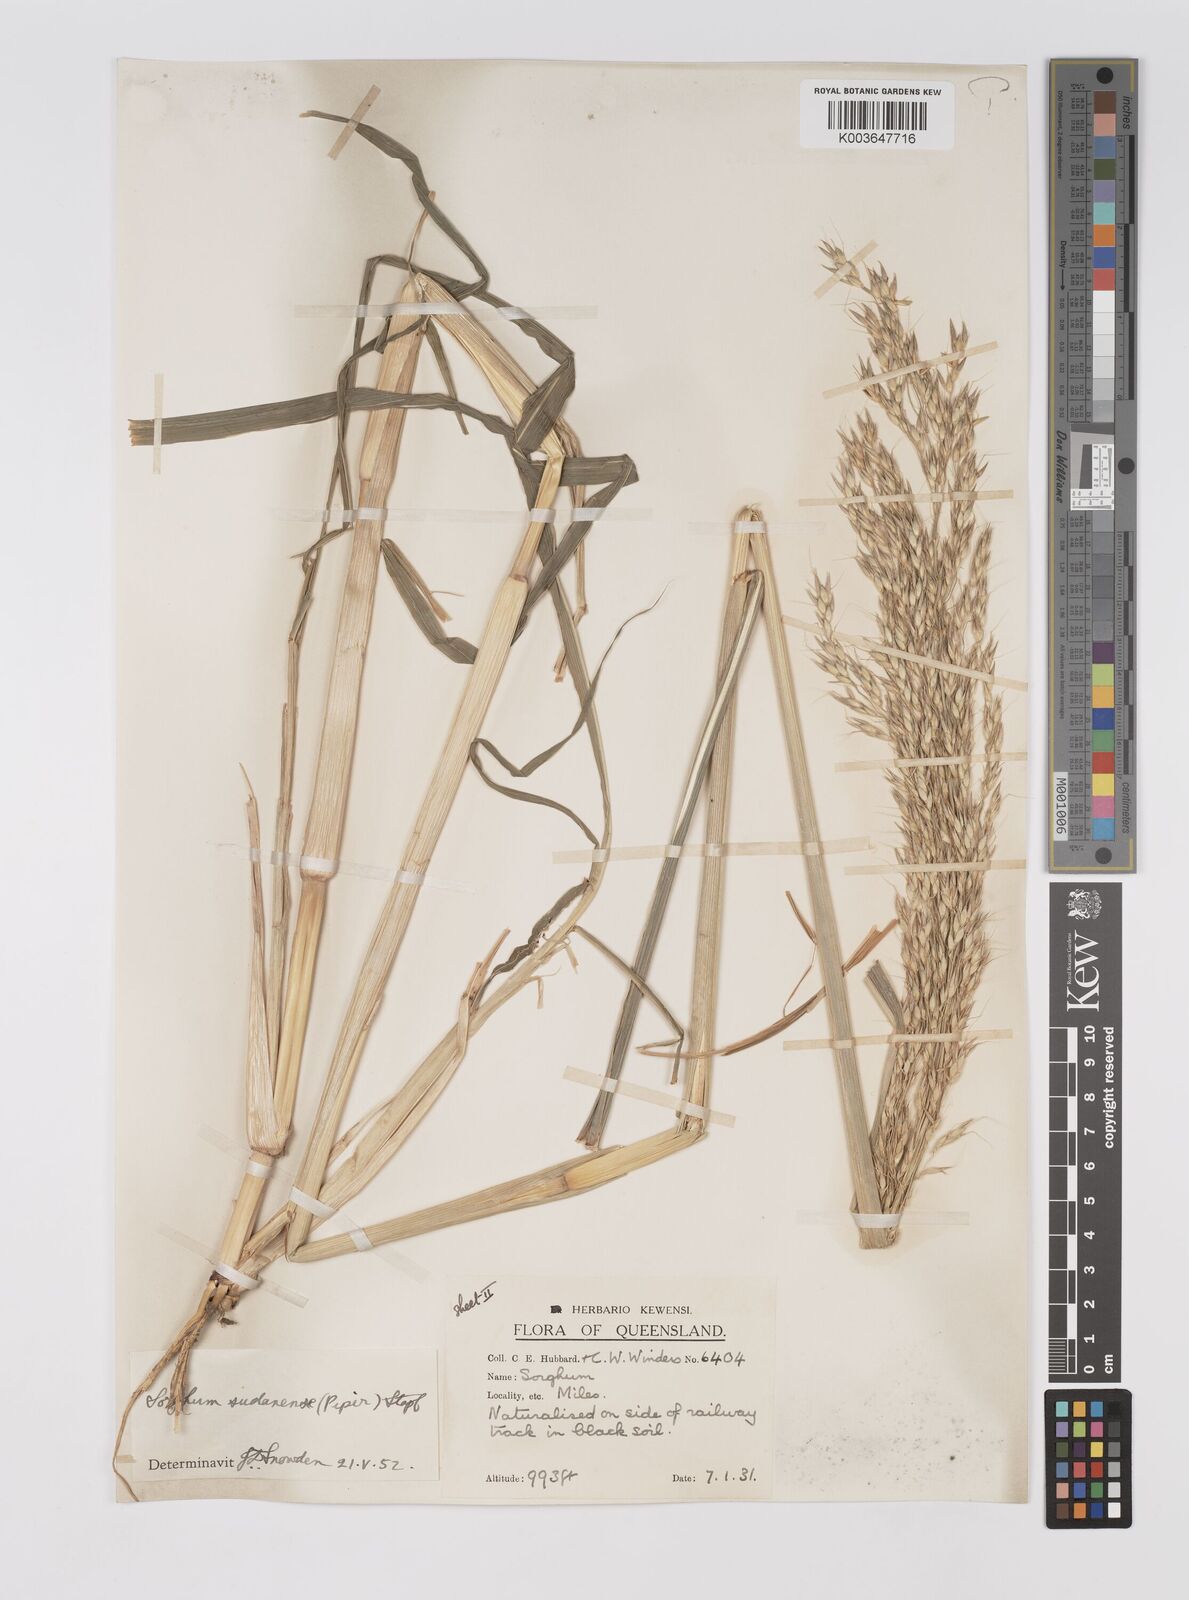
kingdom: Plantae
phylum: Tracheophyta
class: Liliopsida
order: Poales
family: Poaceae
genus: Sorghum
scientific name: Sorghum drummondii
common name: Sudangrass
